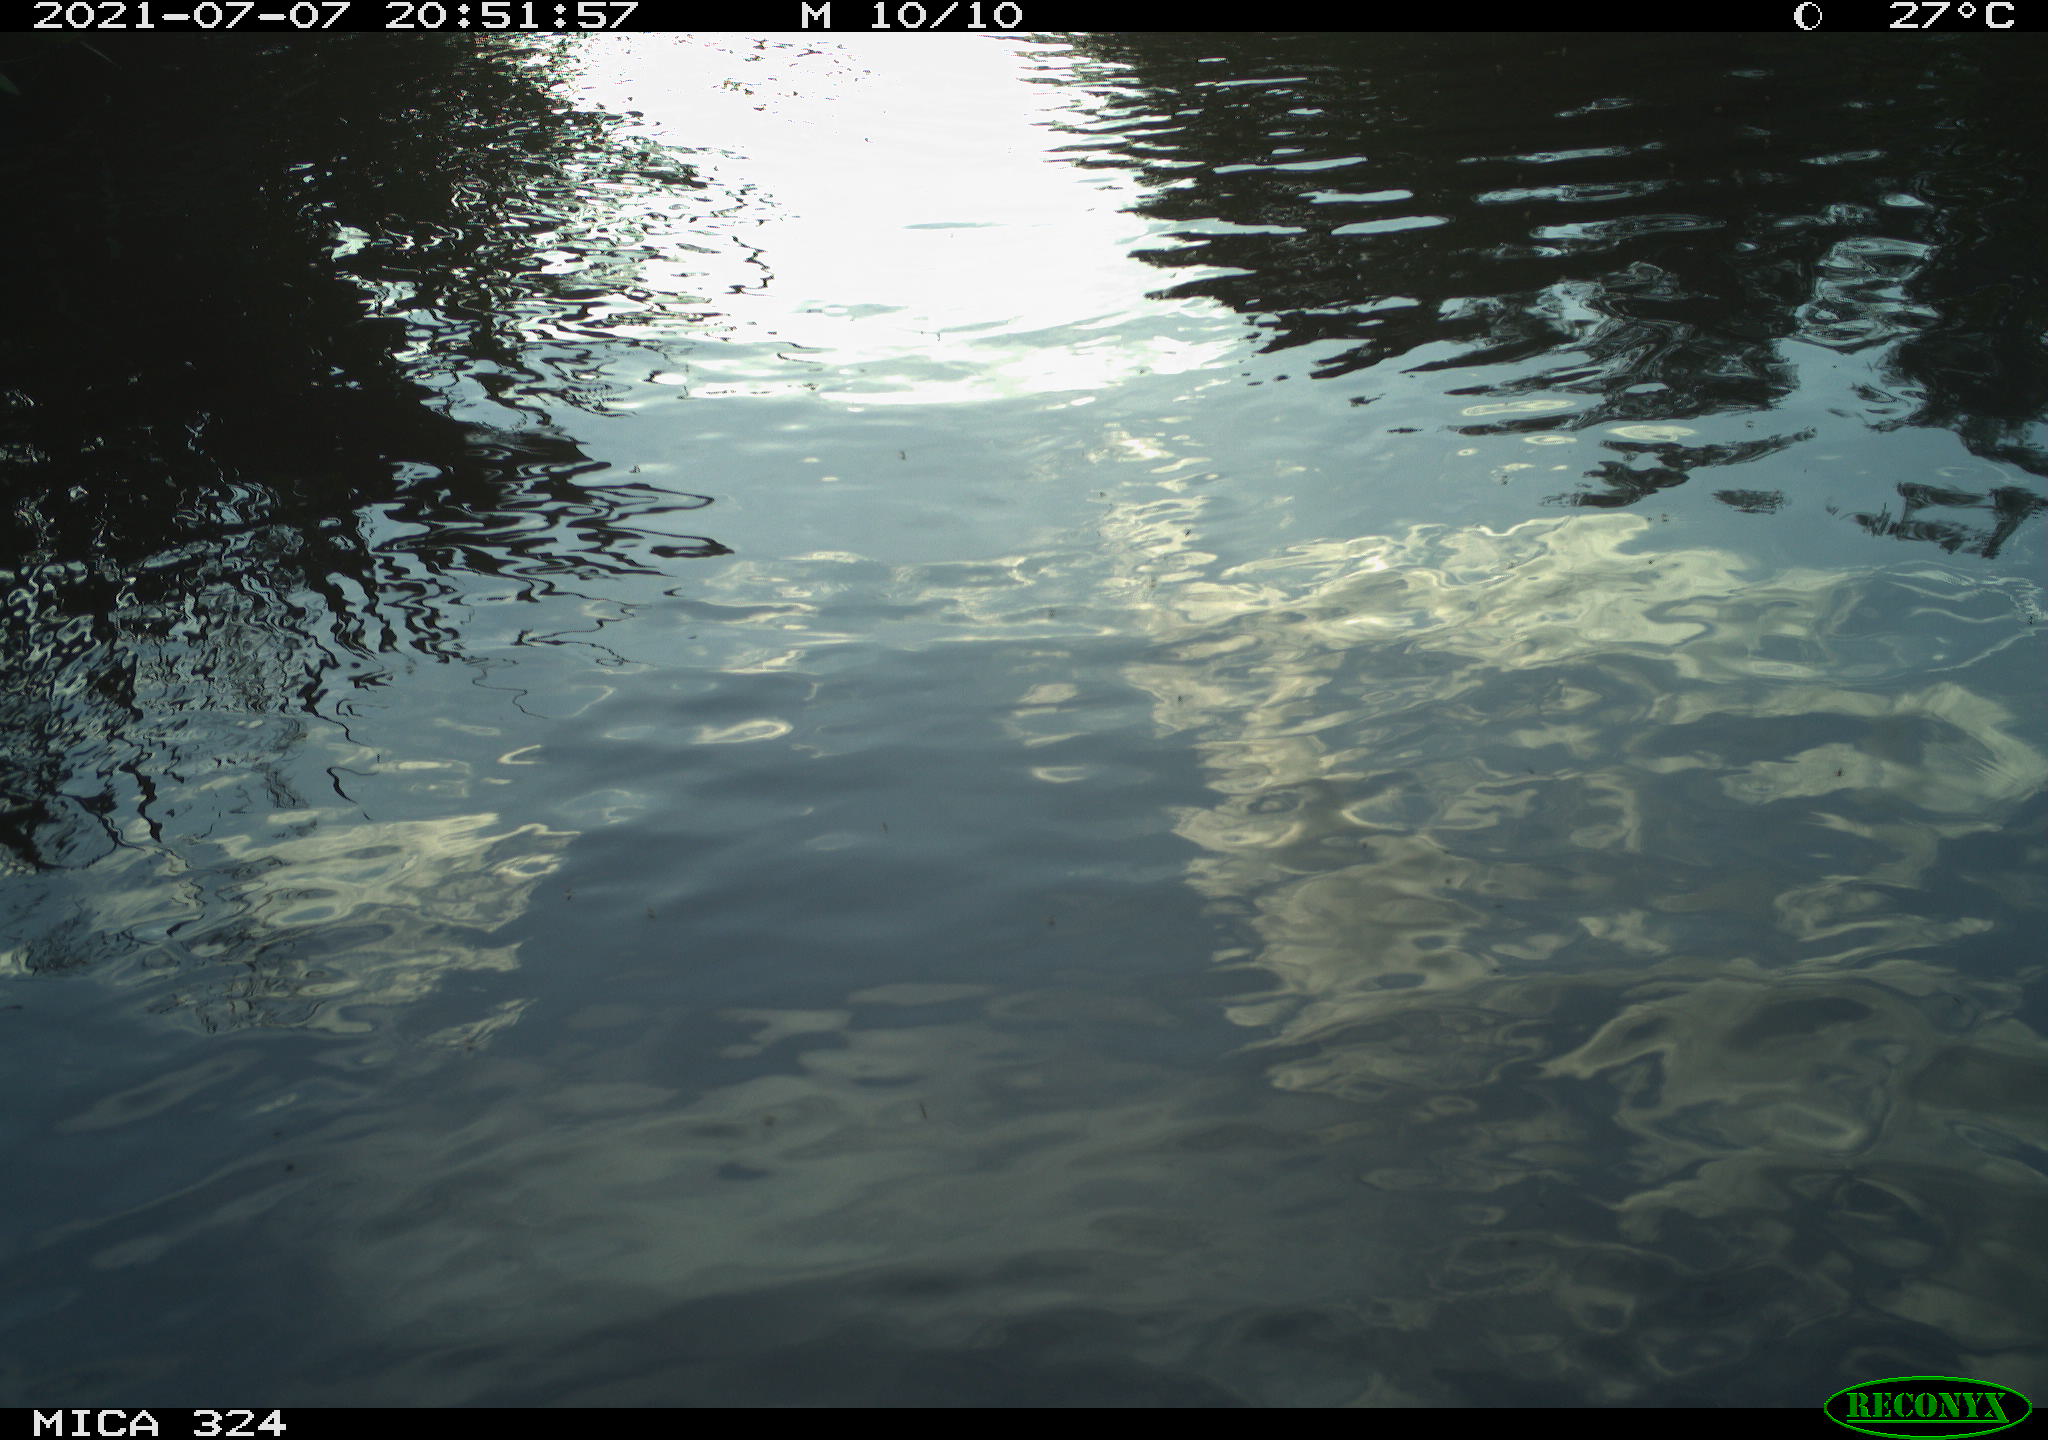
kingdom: Animalia
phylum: Chordata
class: Mammalia
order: Rodentia
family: Cricetidae
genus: Ondatra
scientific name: Ondatra zibethicus
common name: Muskrat
